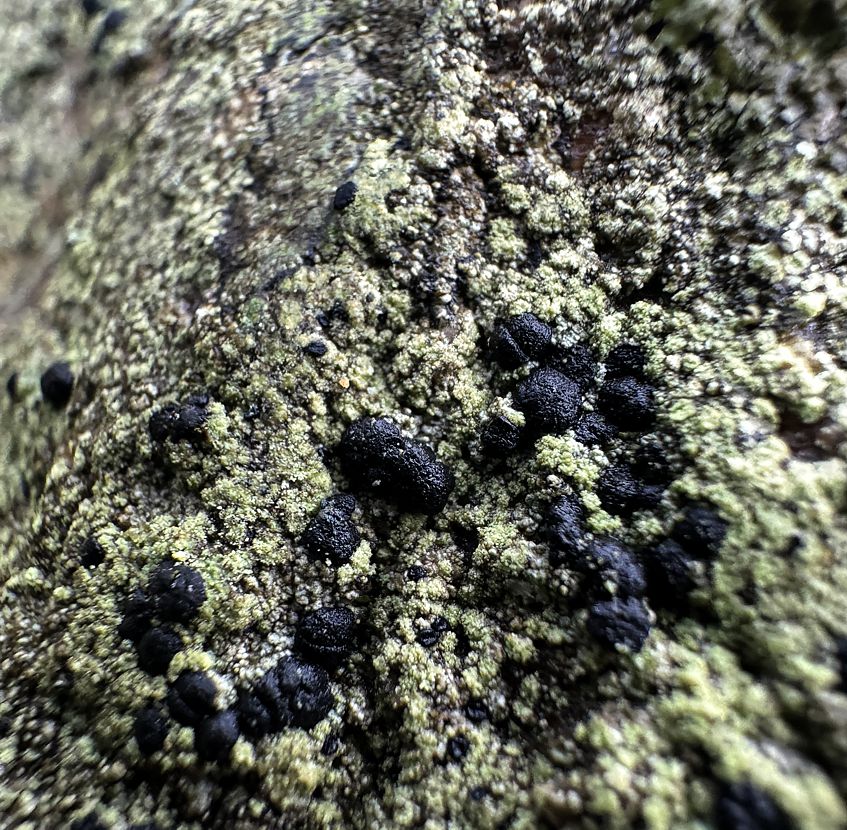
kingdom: Fungi
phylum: Ascomycota
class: Lecanoromycetes
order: Lecanorales
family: Lecanoraceae
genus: Lecidella
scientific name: Lecidella scabra
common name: skurvet skivelav
